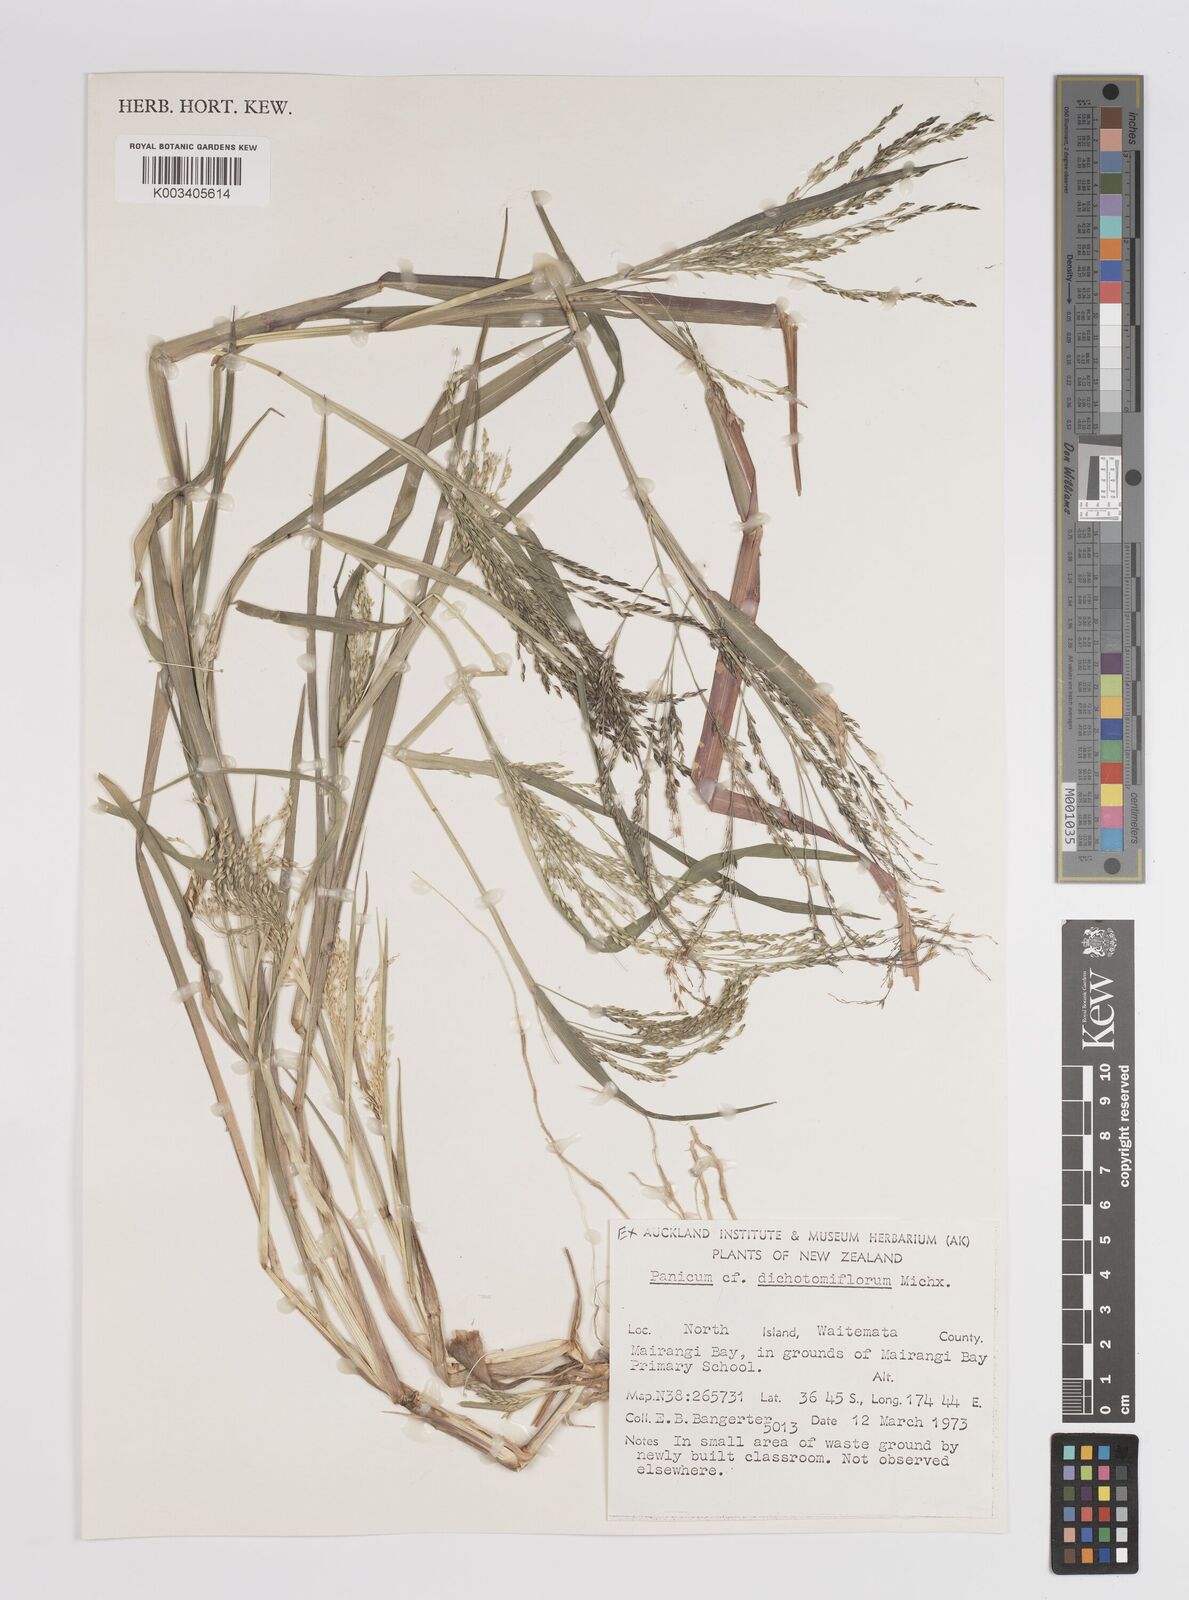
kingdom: Plantae
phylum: Tracheophyta
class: Liliopsida
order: Poales
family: Poaceae
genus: Panicum
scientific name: Panicum
